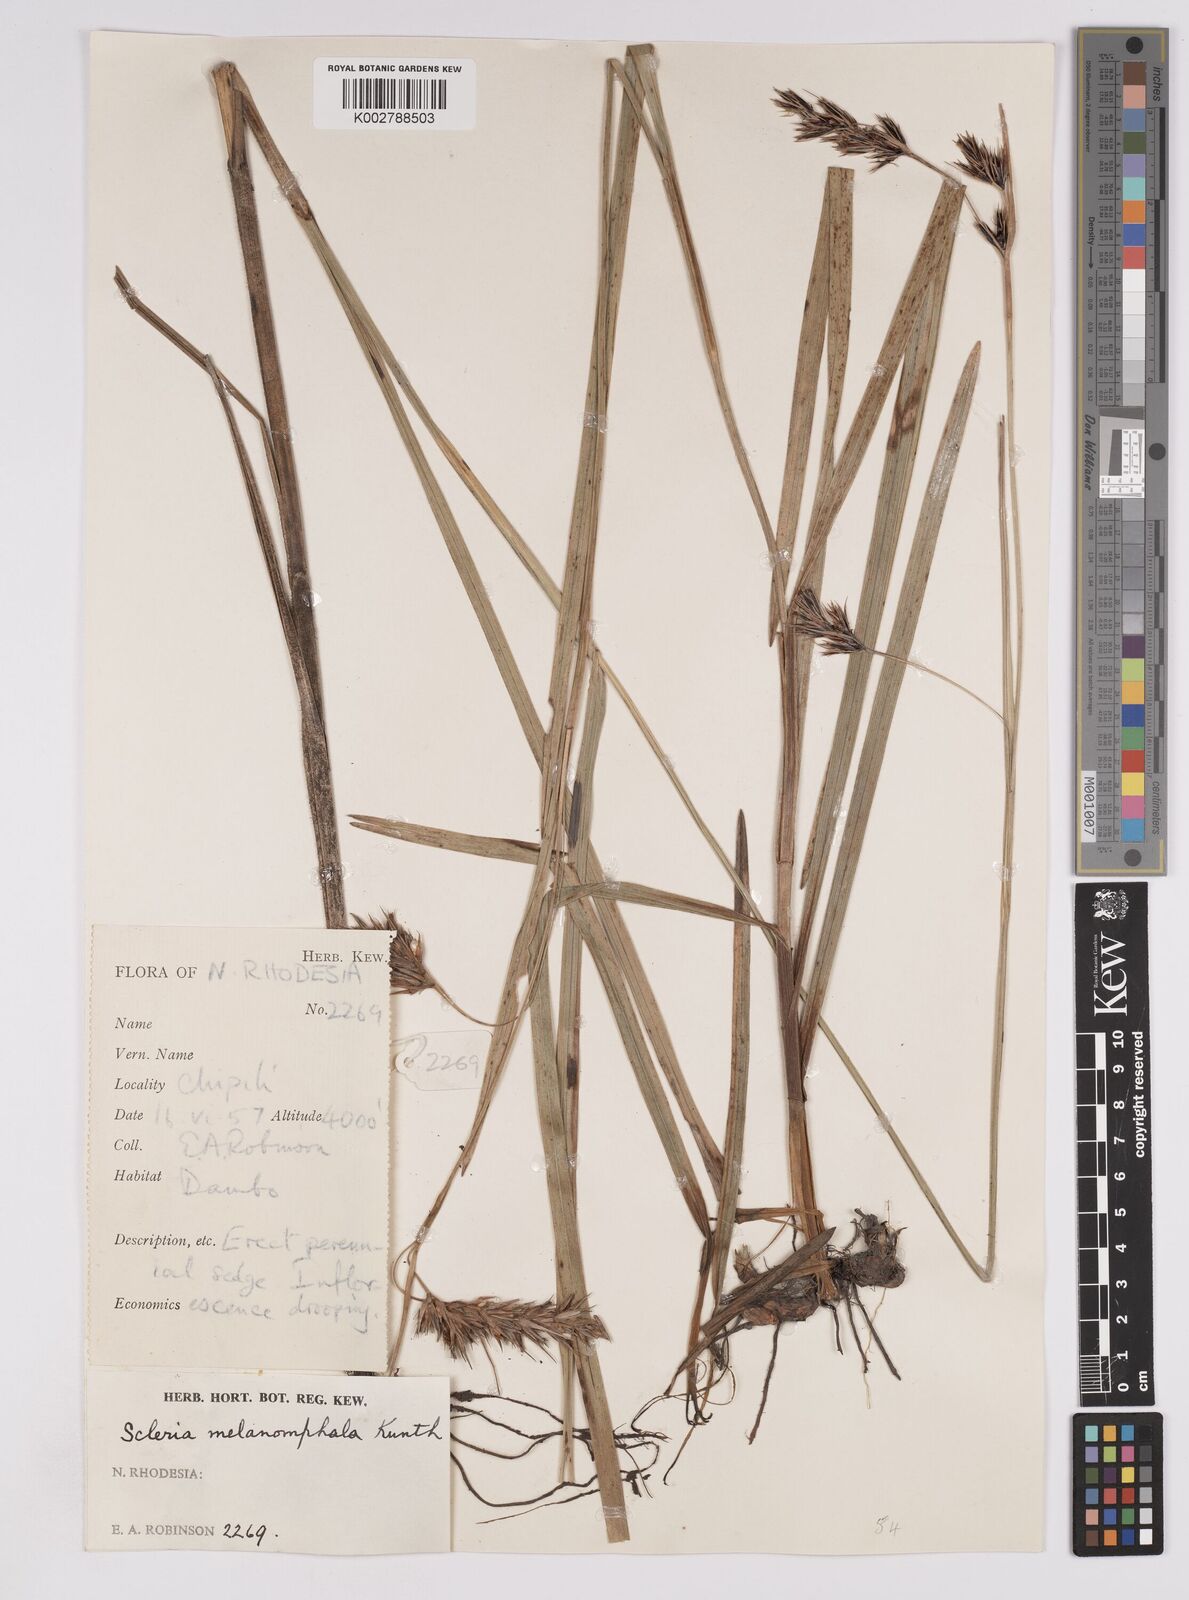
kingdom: Plantae
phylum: Tracheophyta
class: Liliopsida
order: Poales
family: Cyperaceae
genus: Scleria
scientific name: Scleria melanomphala
